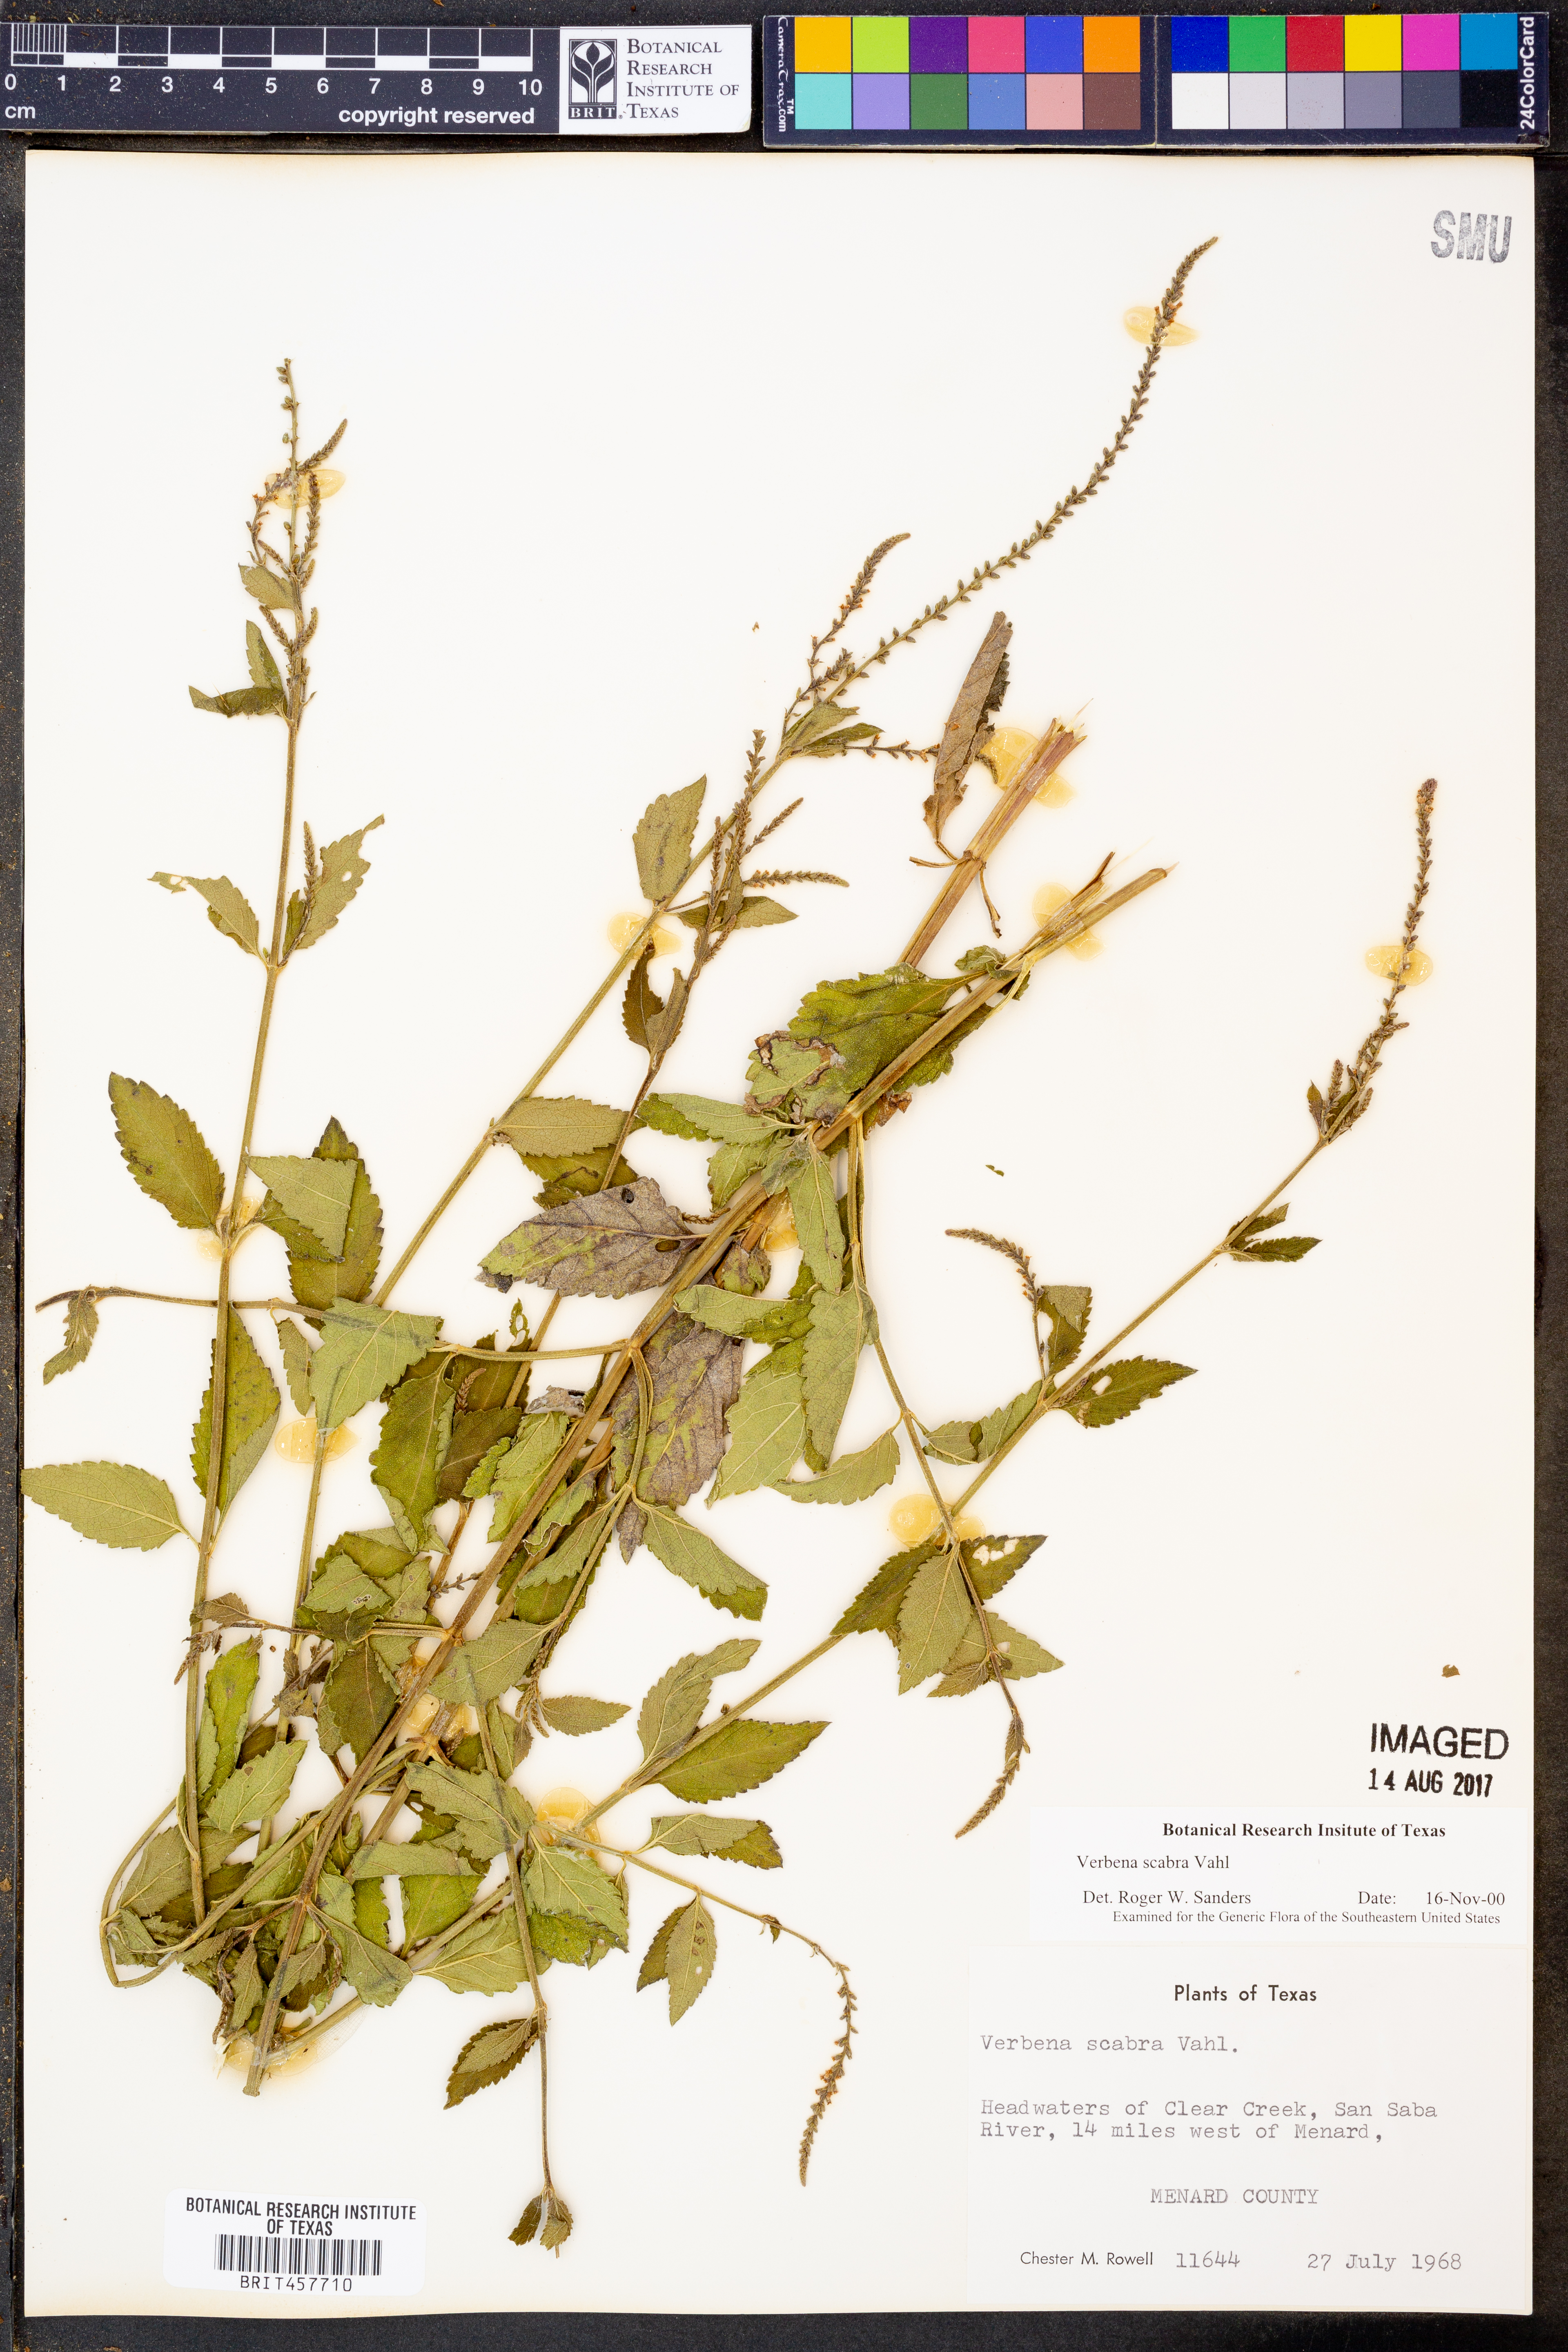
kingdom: Plantae
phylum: Tracheophyta
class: Magnoliopsida
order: Lamiales
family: Verbenaceae
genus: Verbena
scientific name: Verbena scabra
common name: Sandpaper vervain
